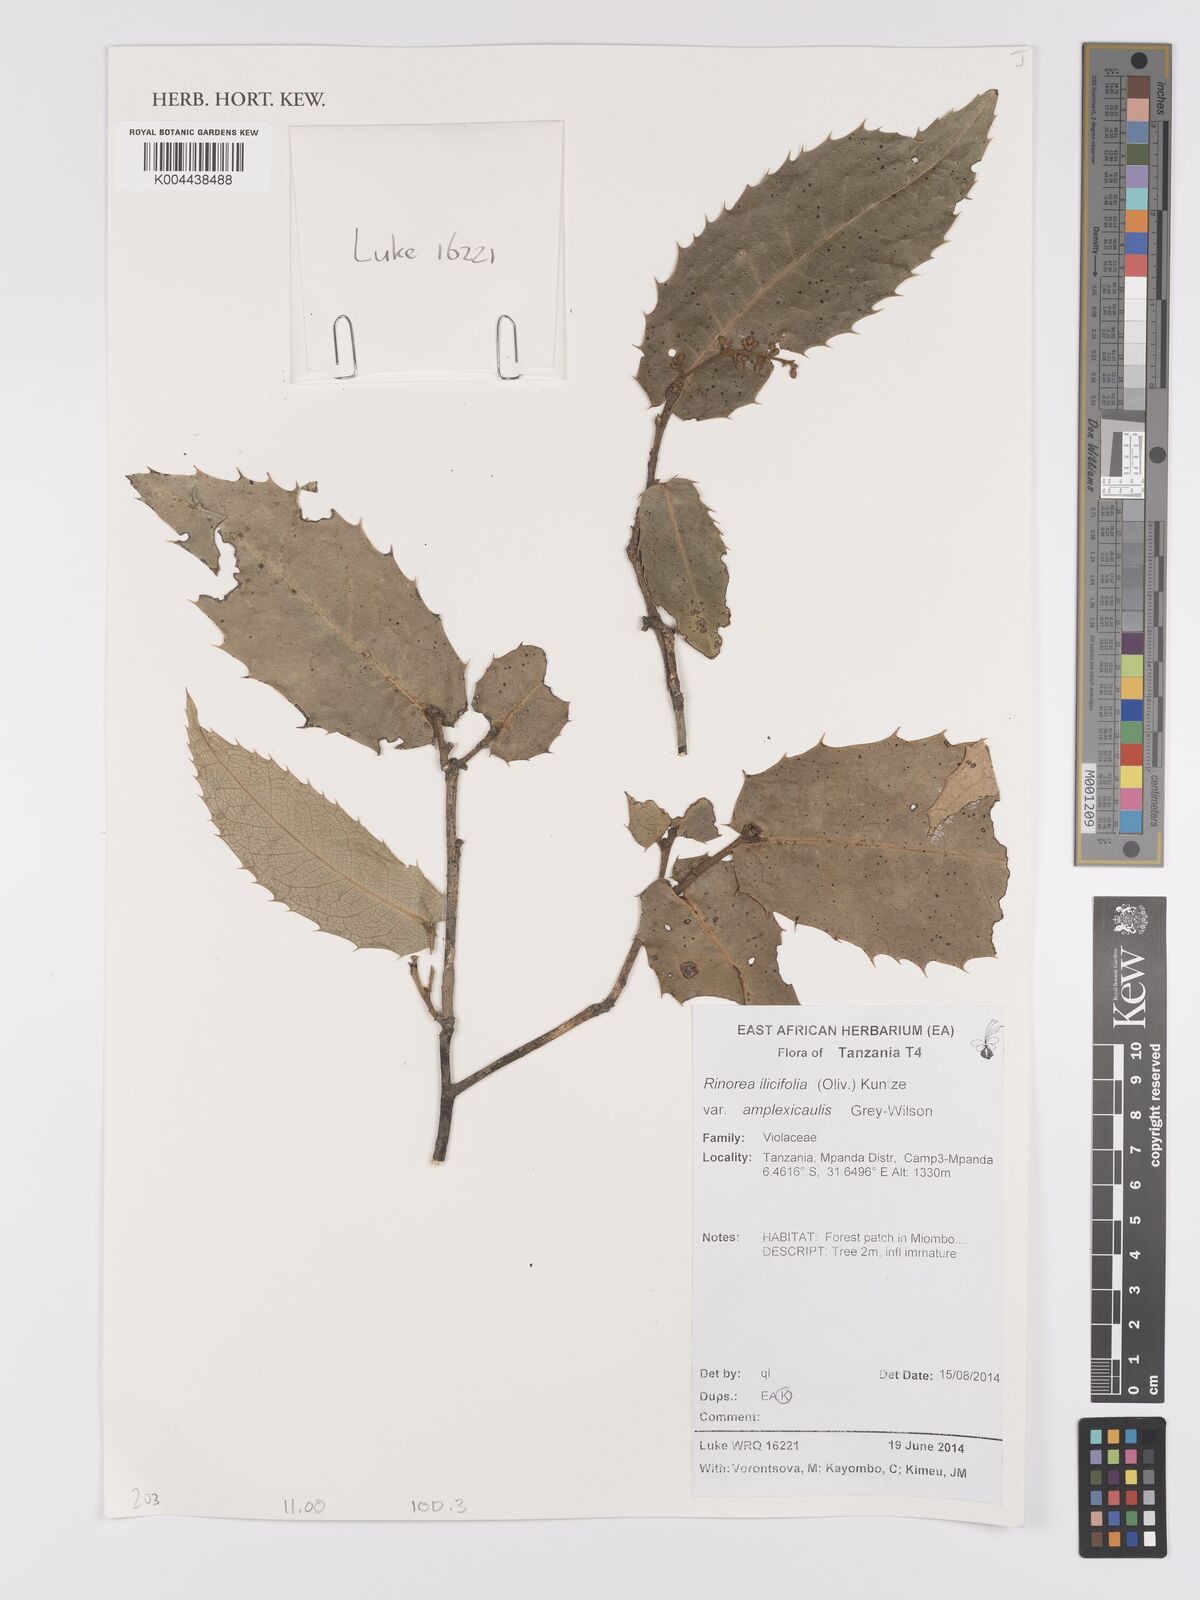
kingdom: Plantae
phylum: Tracheophyta
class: Magnoliopsida
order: Malpighiales
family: Violaceae
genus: Rinorea
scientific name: Rinorea ilicifolia
